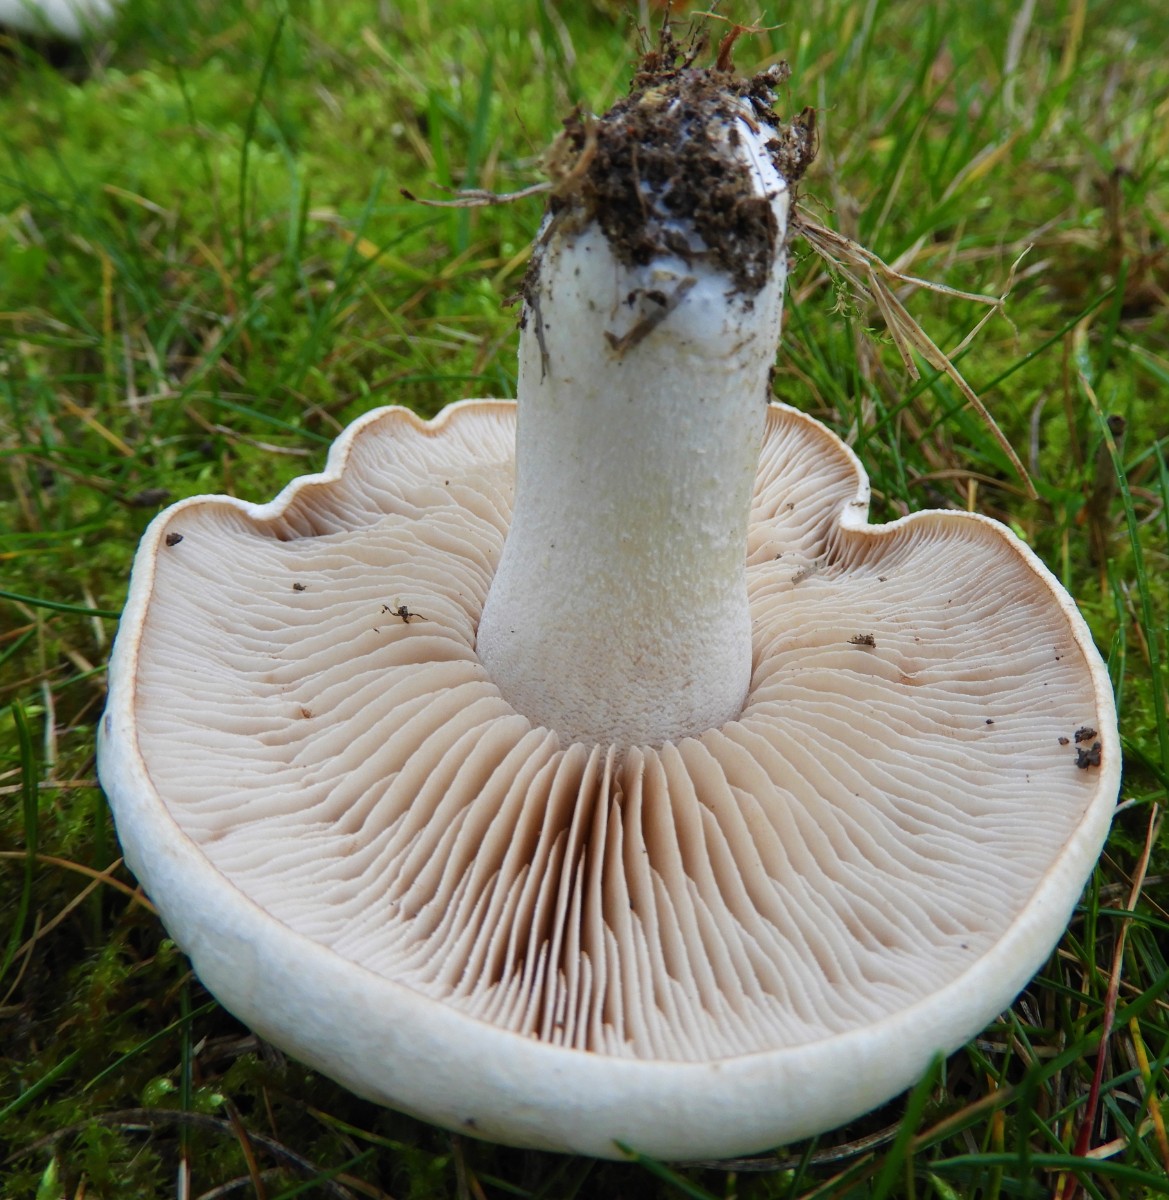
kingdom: Fungi
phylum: Basidiomycota
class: Agaricomycetes
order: Agaricales
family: Hymenogastraceae
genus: Hebeloma
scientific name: Hebeloma crustuliniforme
